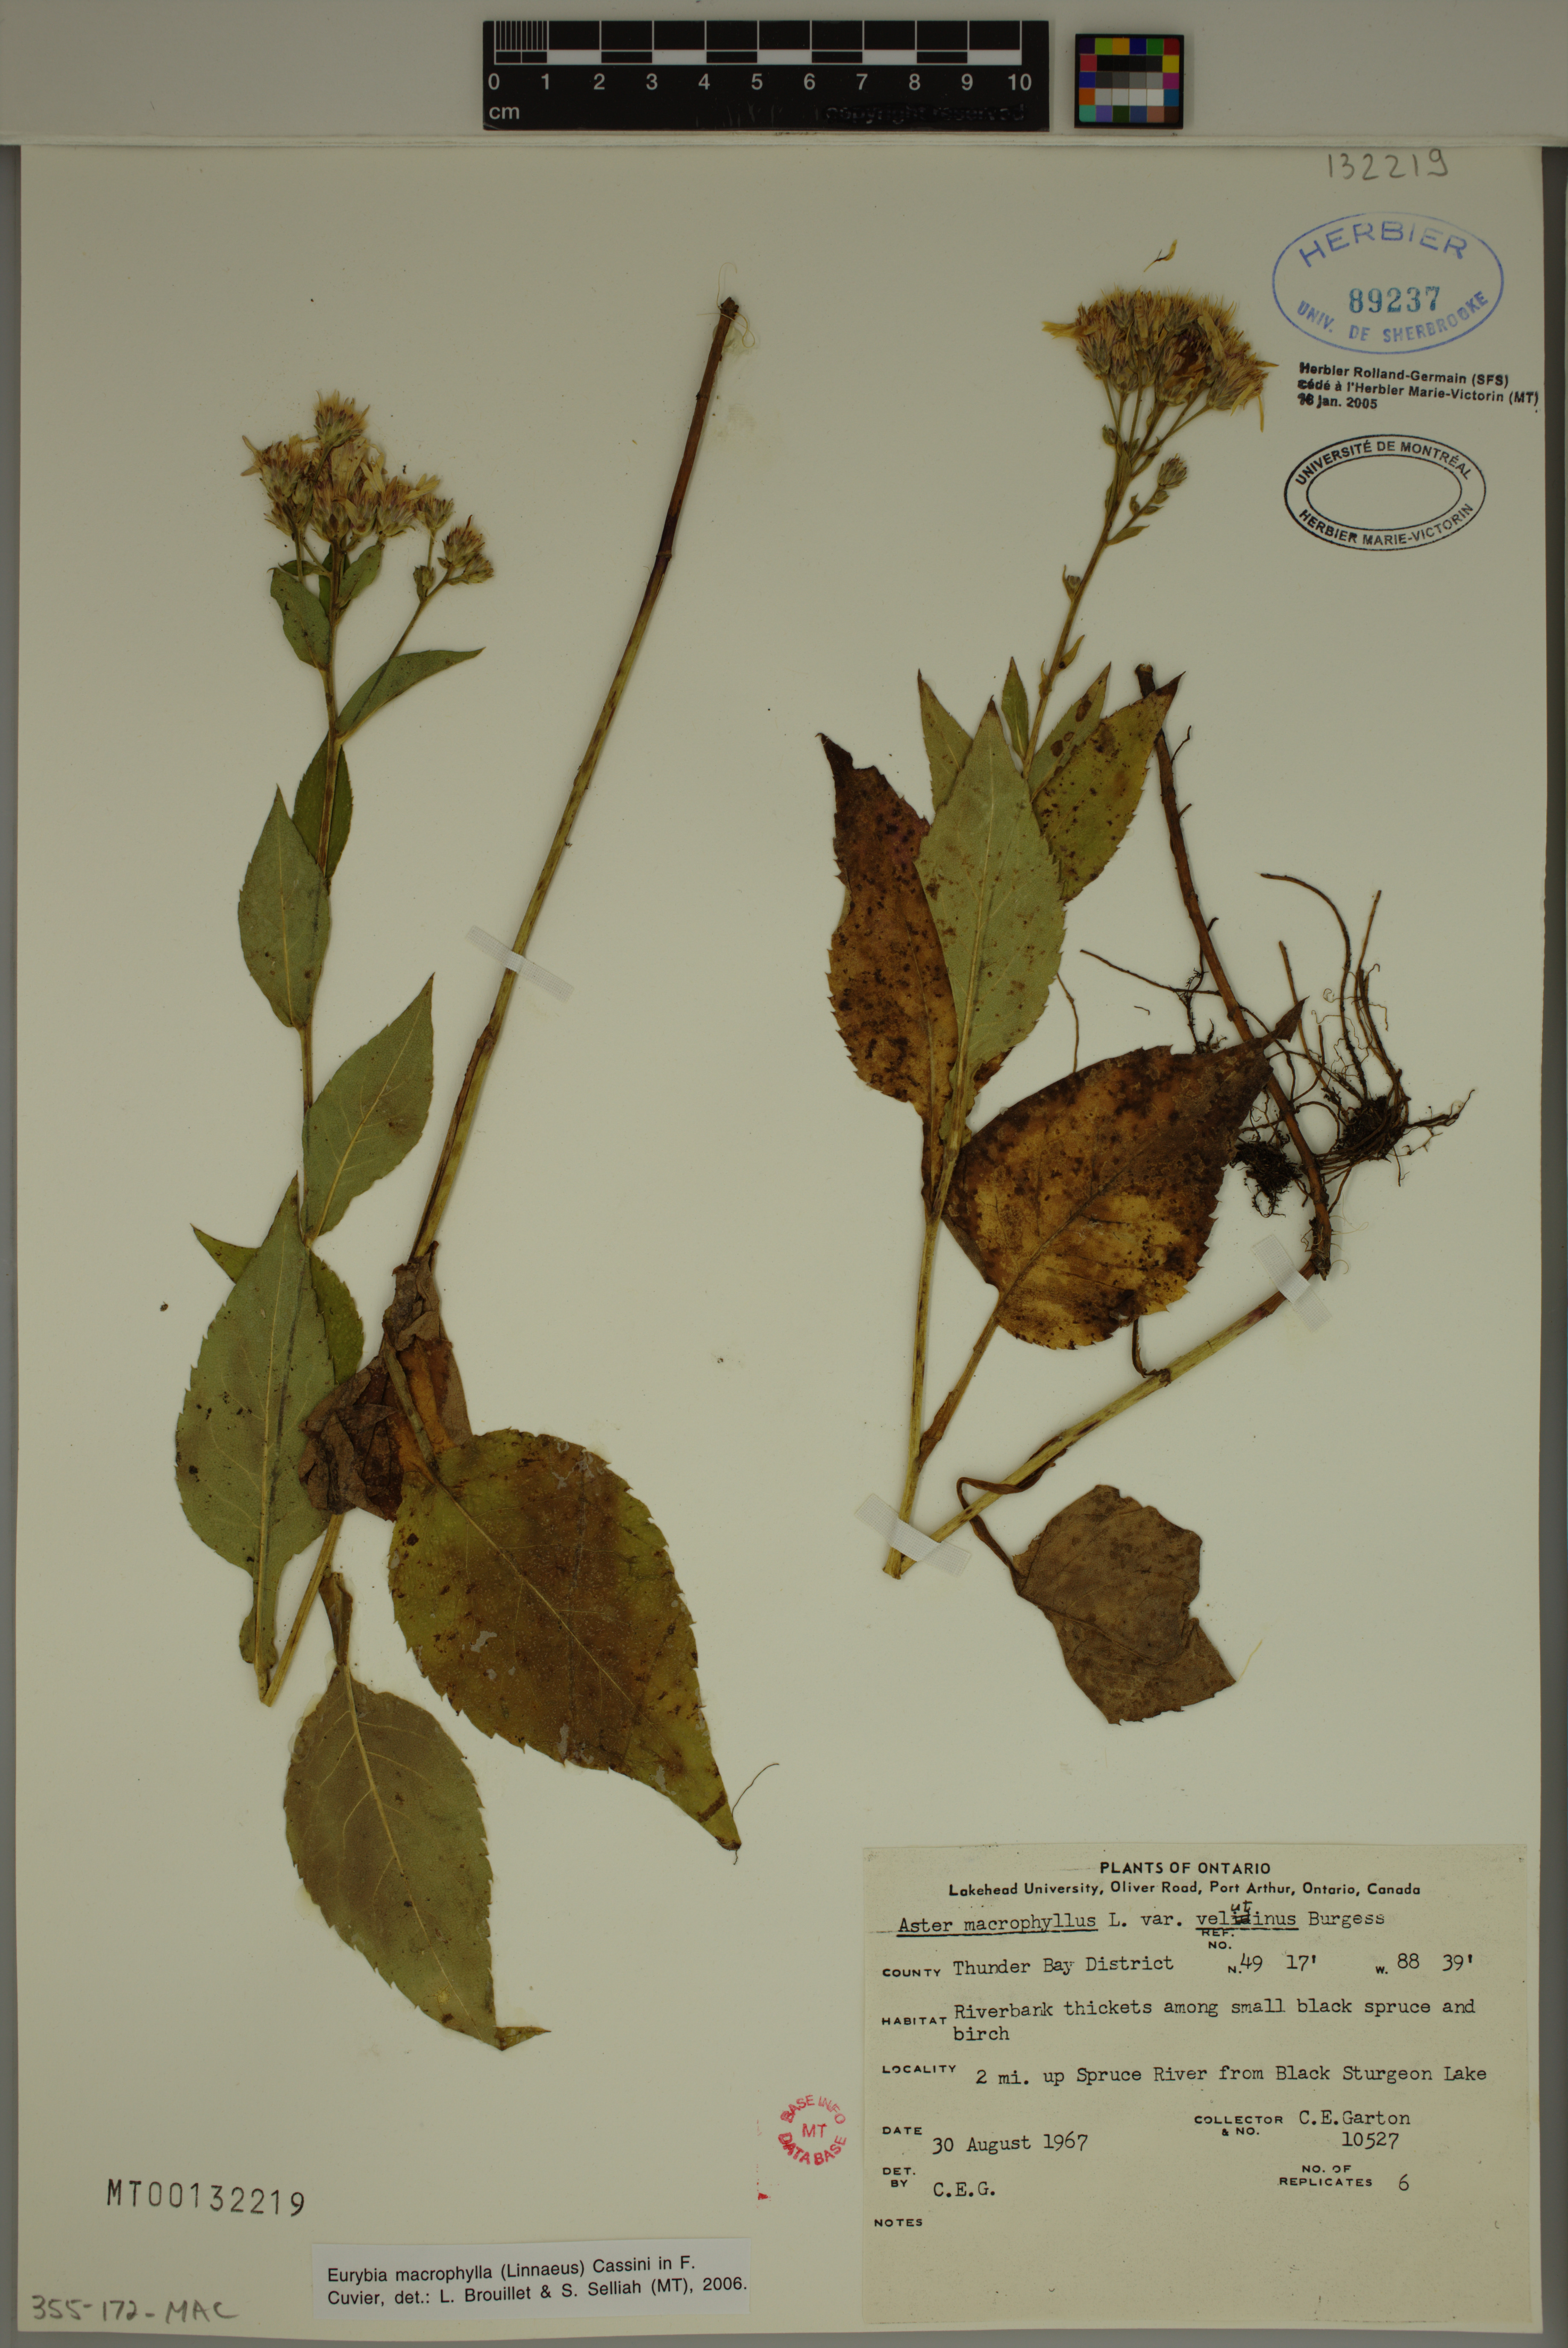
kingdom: Plantae
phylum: Tracheophyta
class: Magnoliopsida
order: Asterales
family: Asteraceae
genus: Eurybia
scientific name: Eurybia macrophylla
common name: Big-leaved aster
